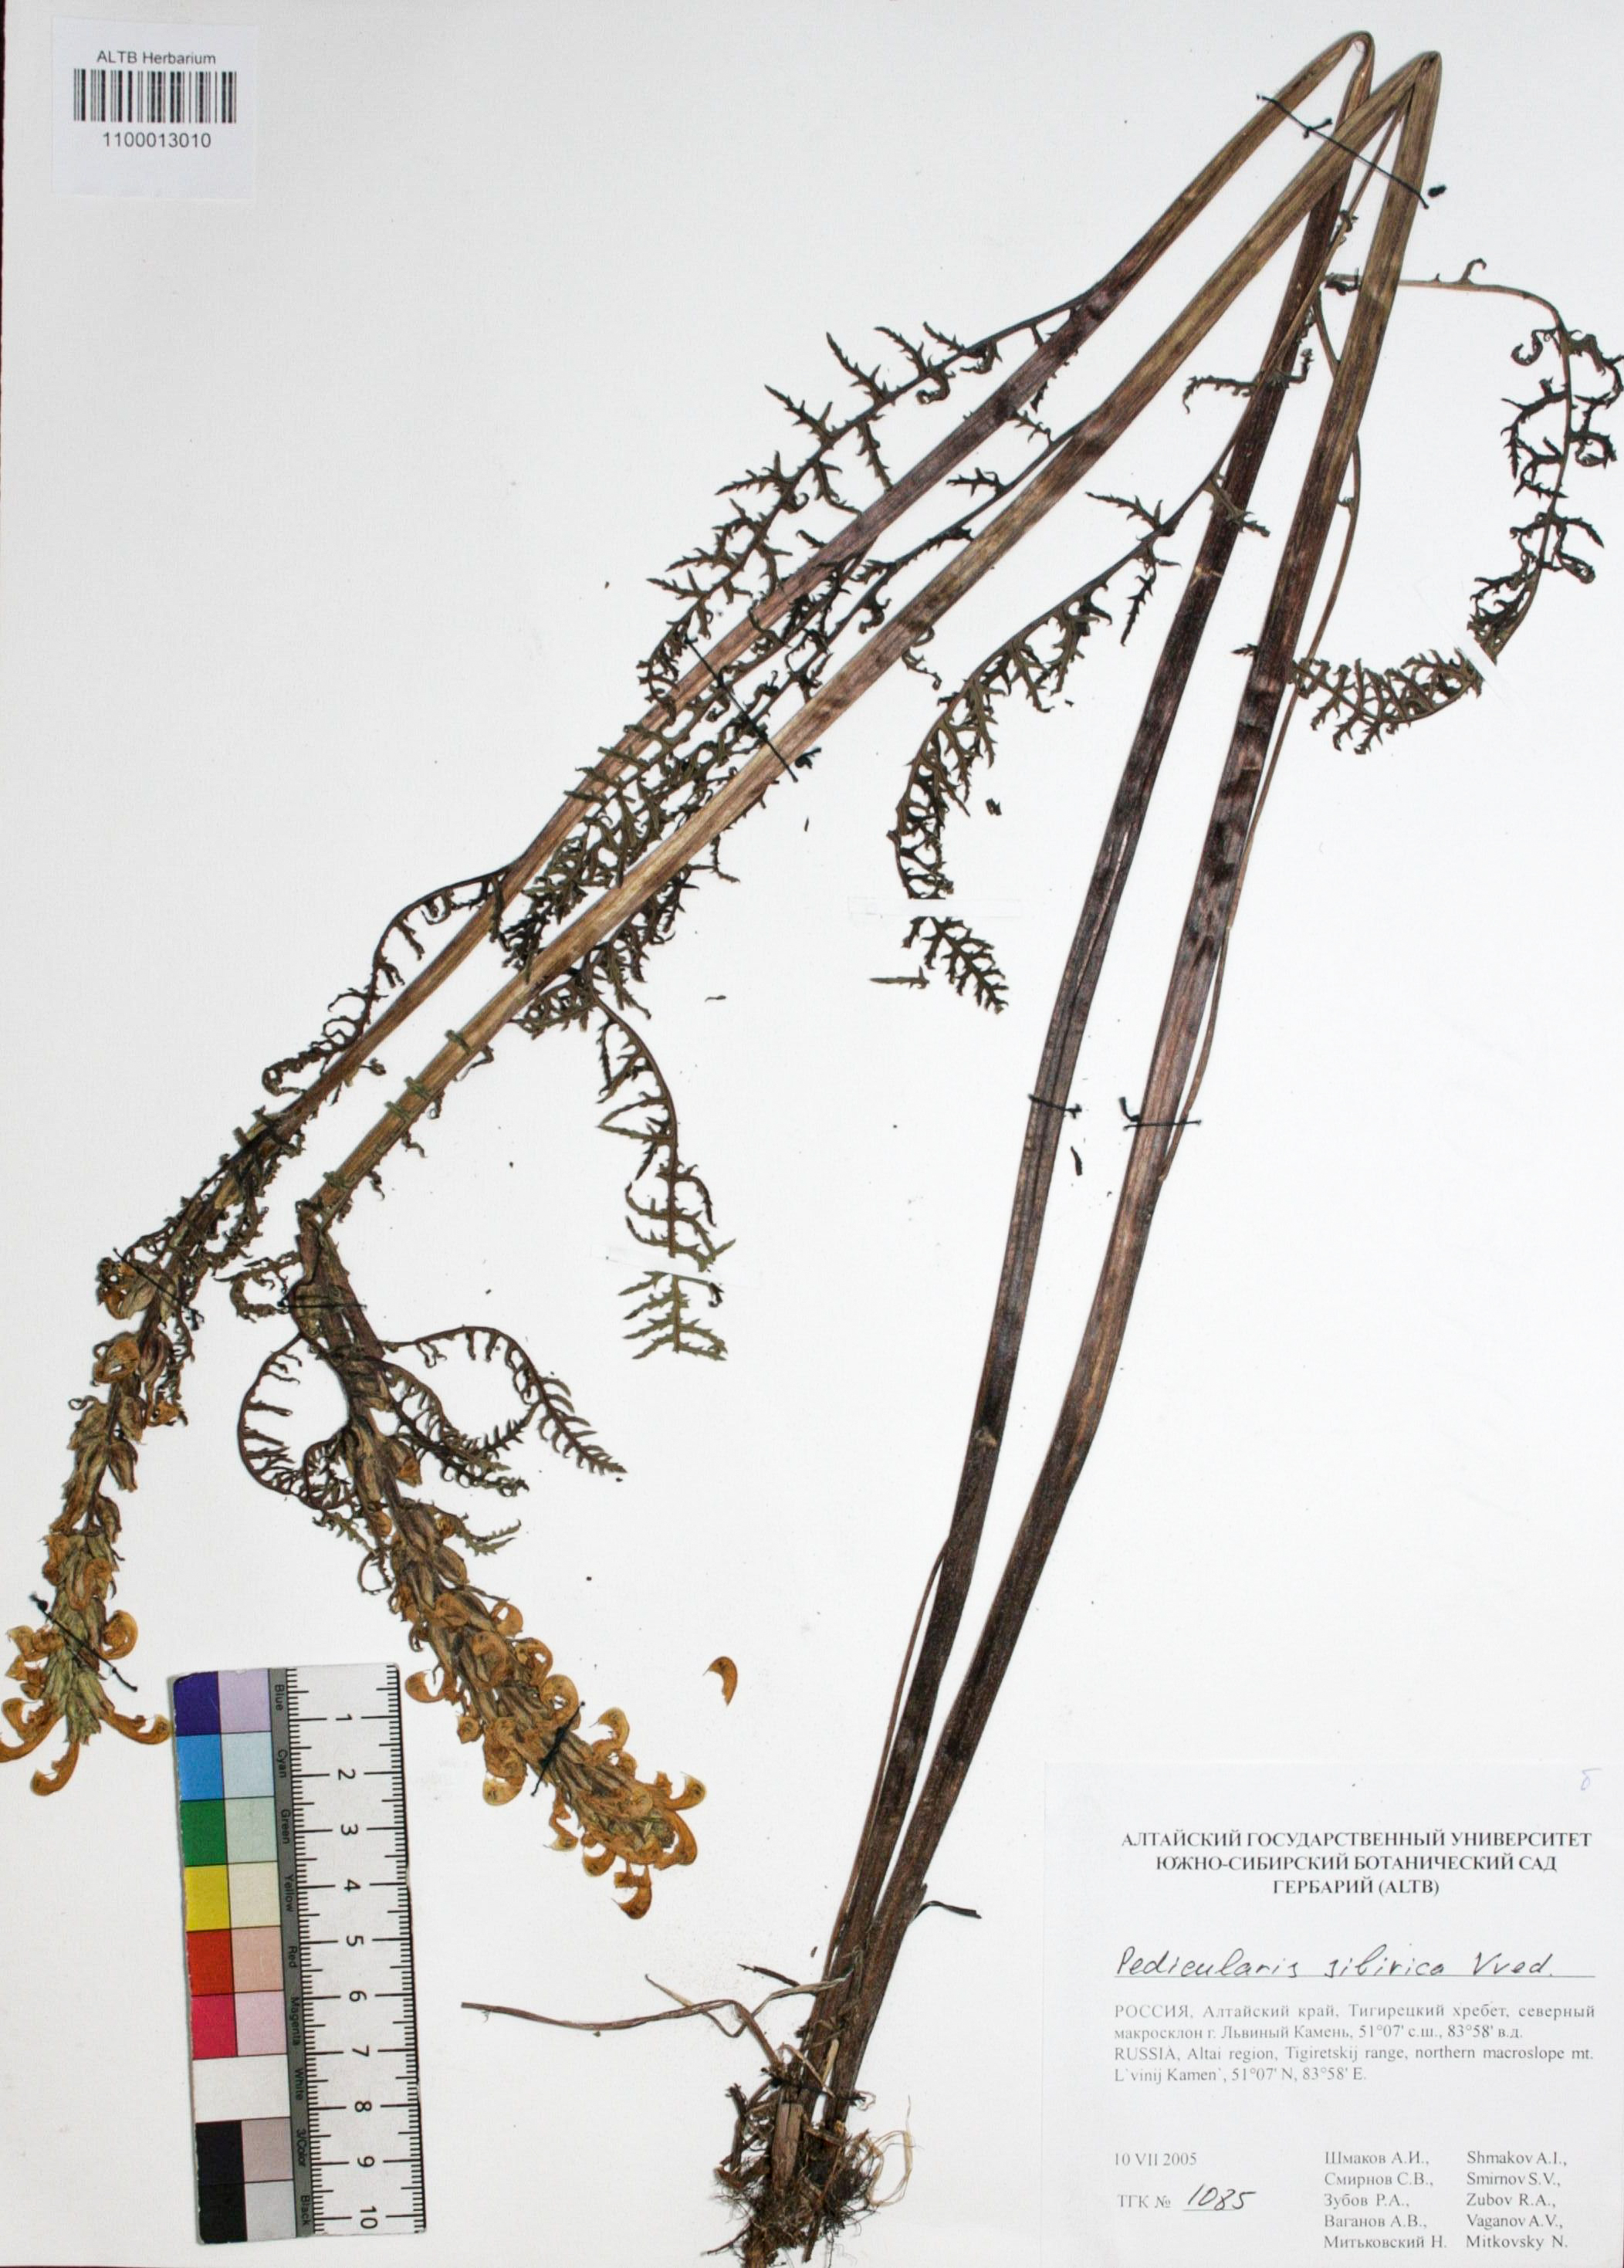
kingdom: Plantae
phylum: Tracheophyta
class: Magnoliopsida
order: Lamiales
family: Orobanchaceae
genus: Pedicularis
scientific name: Pedicularis sibirica
